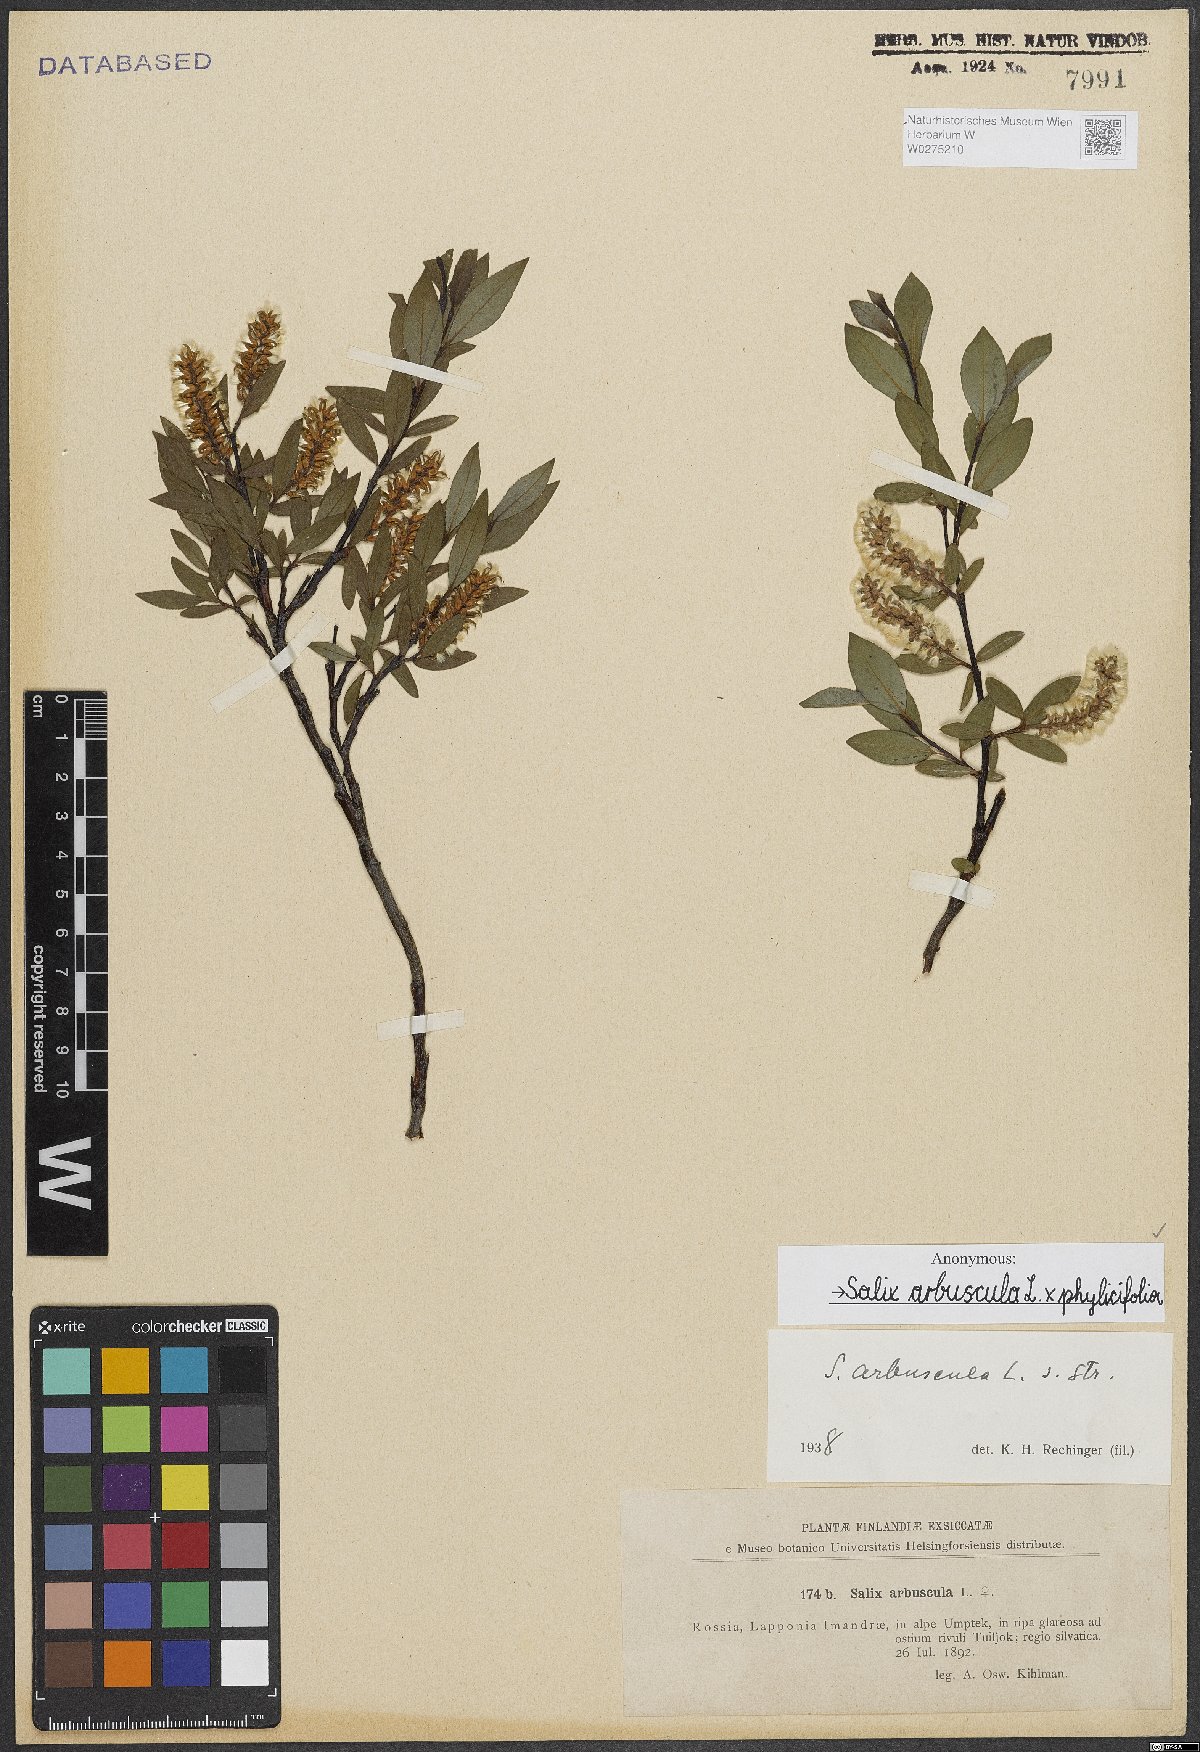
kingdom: Plantae
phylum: Tracheophyta
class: Magnoliopsida
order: Malpighiales
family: Salicaceae
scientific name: Salicaceae
